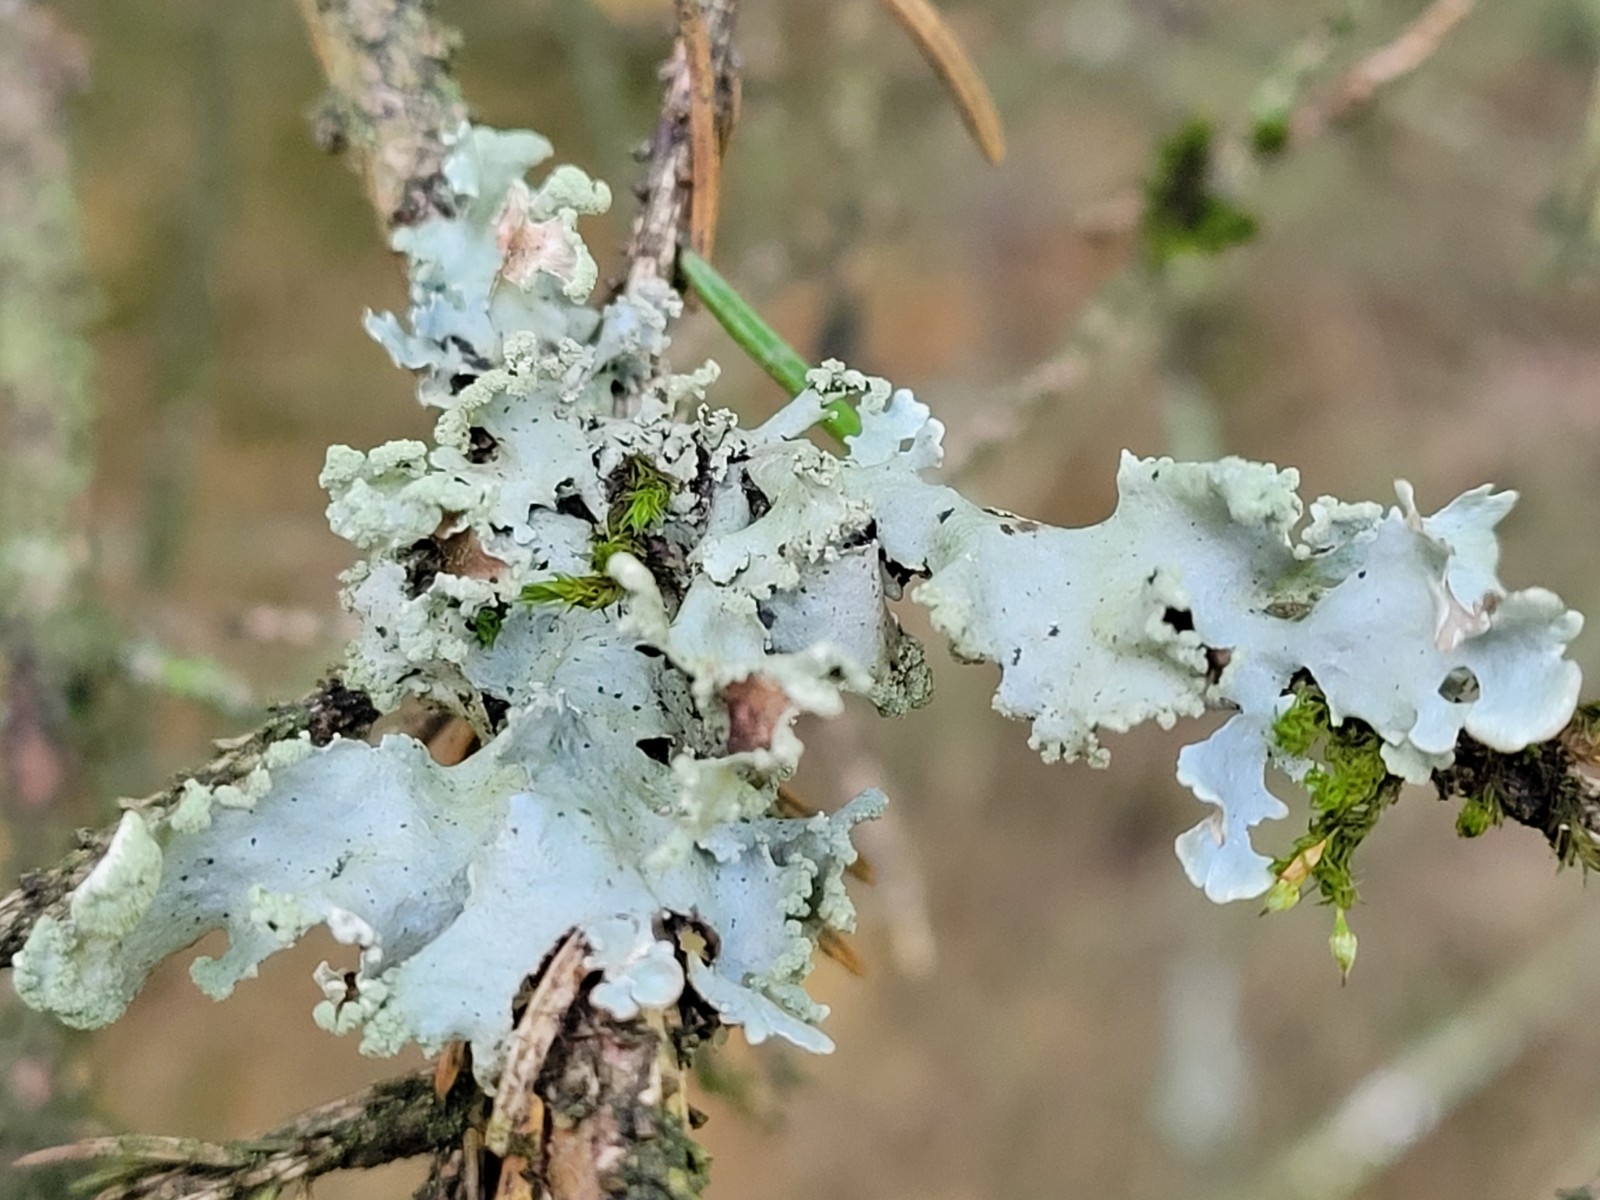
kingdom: Fungi
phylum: Ascomycota
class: Lecanoromycetes
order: Lecanorales
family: Parmeliaceae
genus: Hypotrachyna
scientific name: Hypotrachyna revoluta
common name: bleggrå skållav
